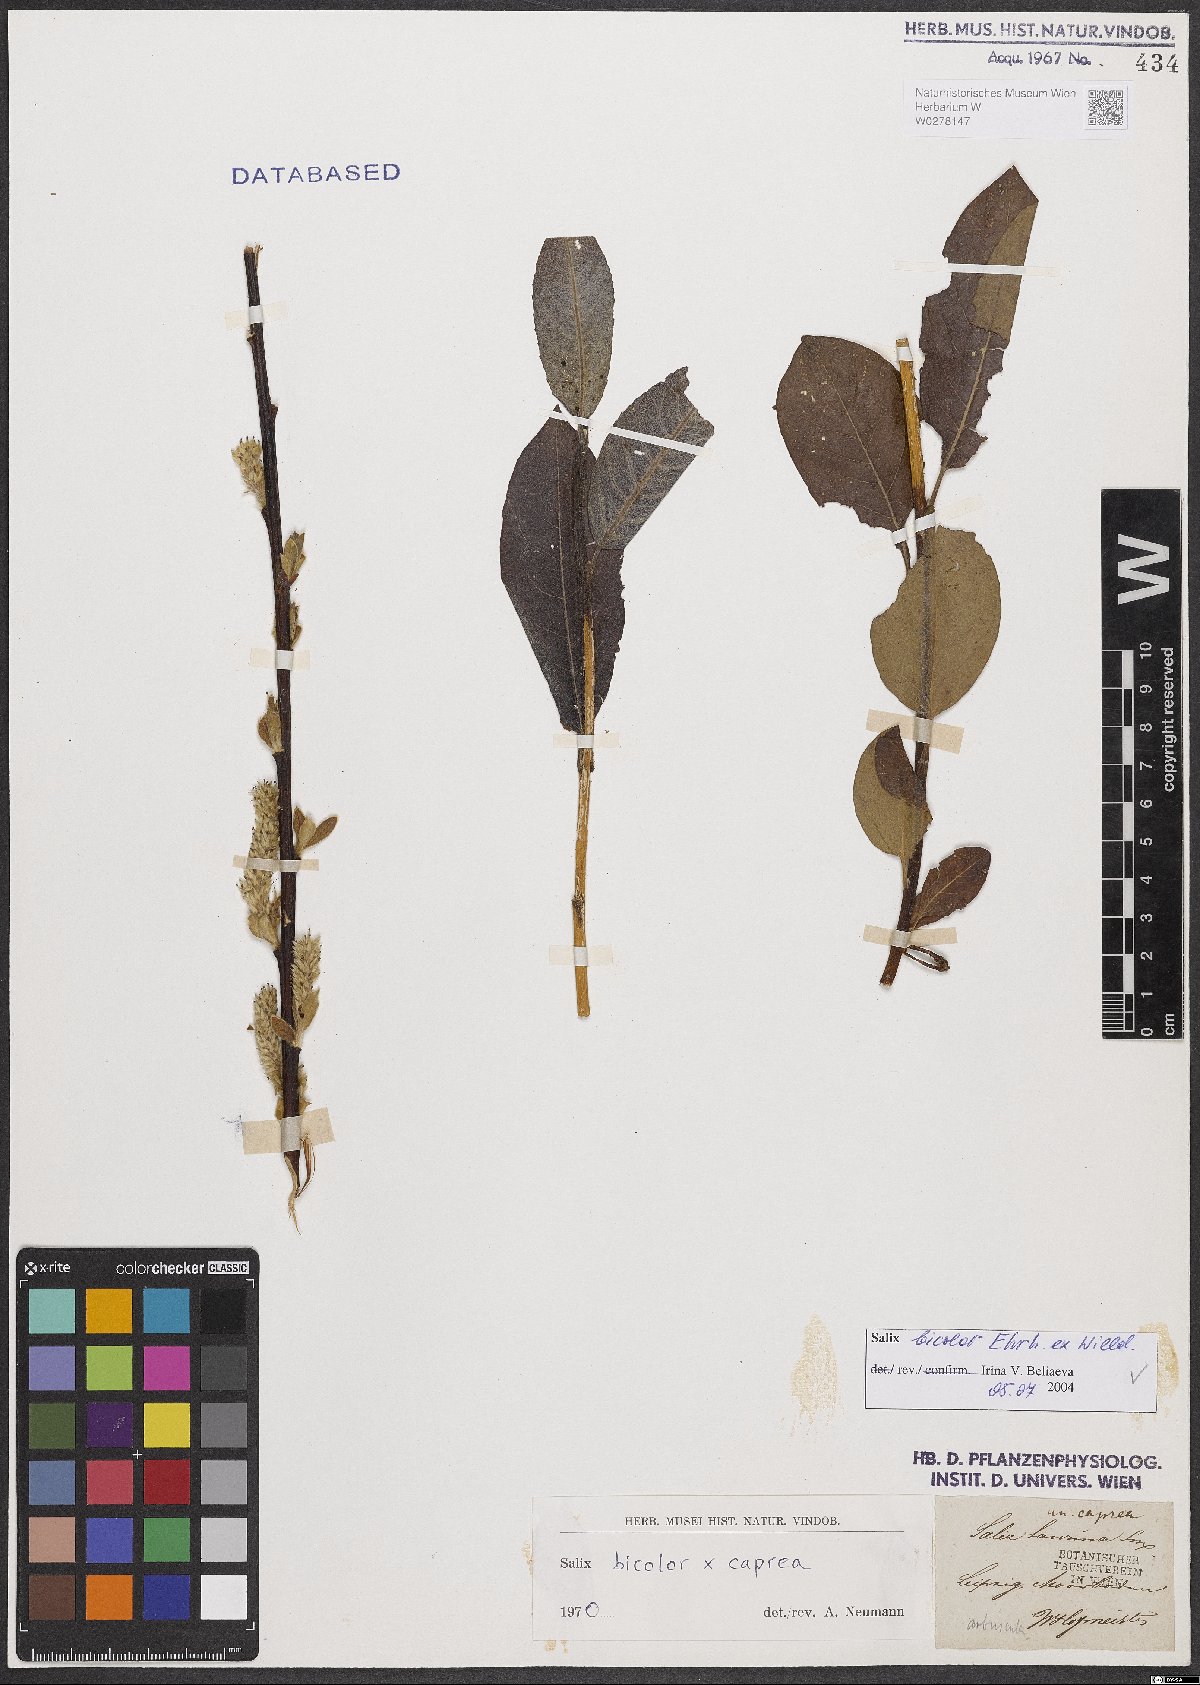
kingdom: Plantae
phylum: Tracheophyta
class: Magnoliopsida
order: Malpighiales
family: Salicaceae
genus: Salix
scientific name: Salix bicolor
